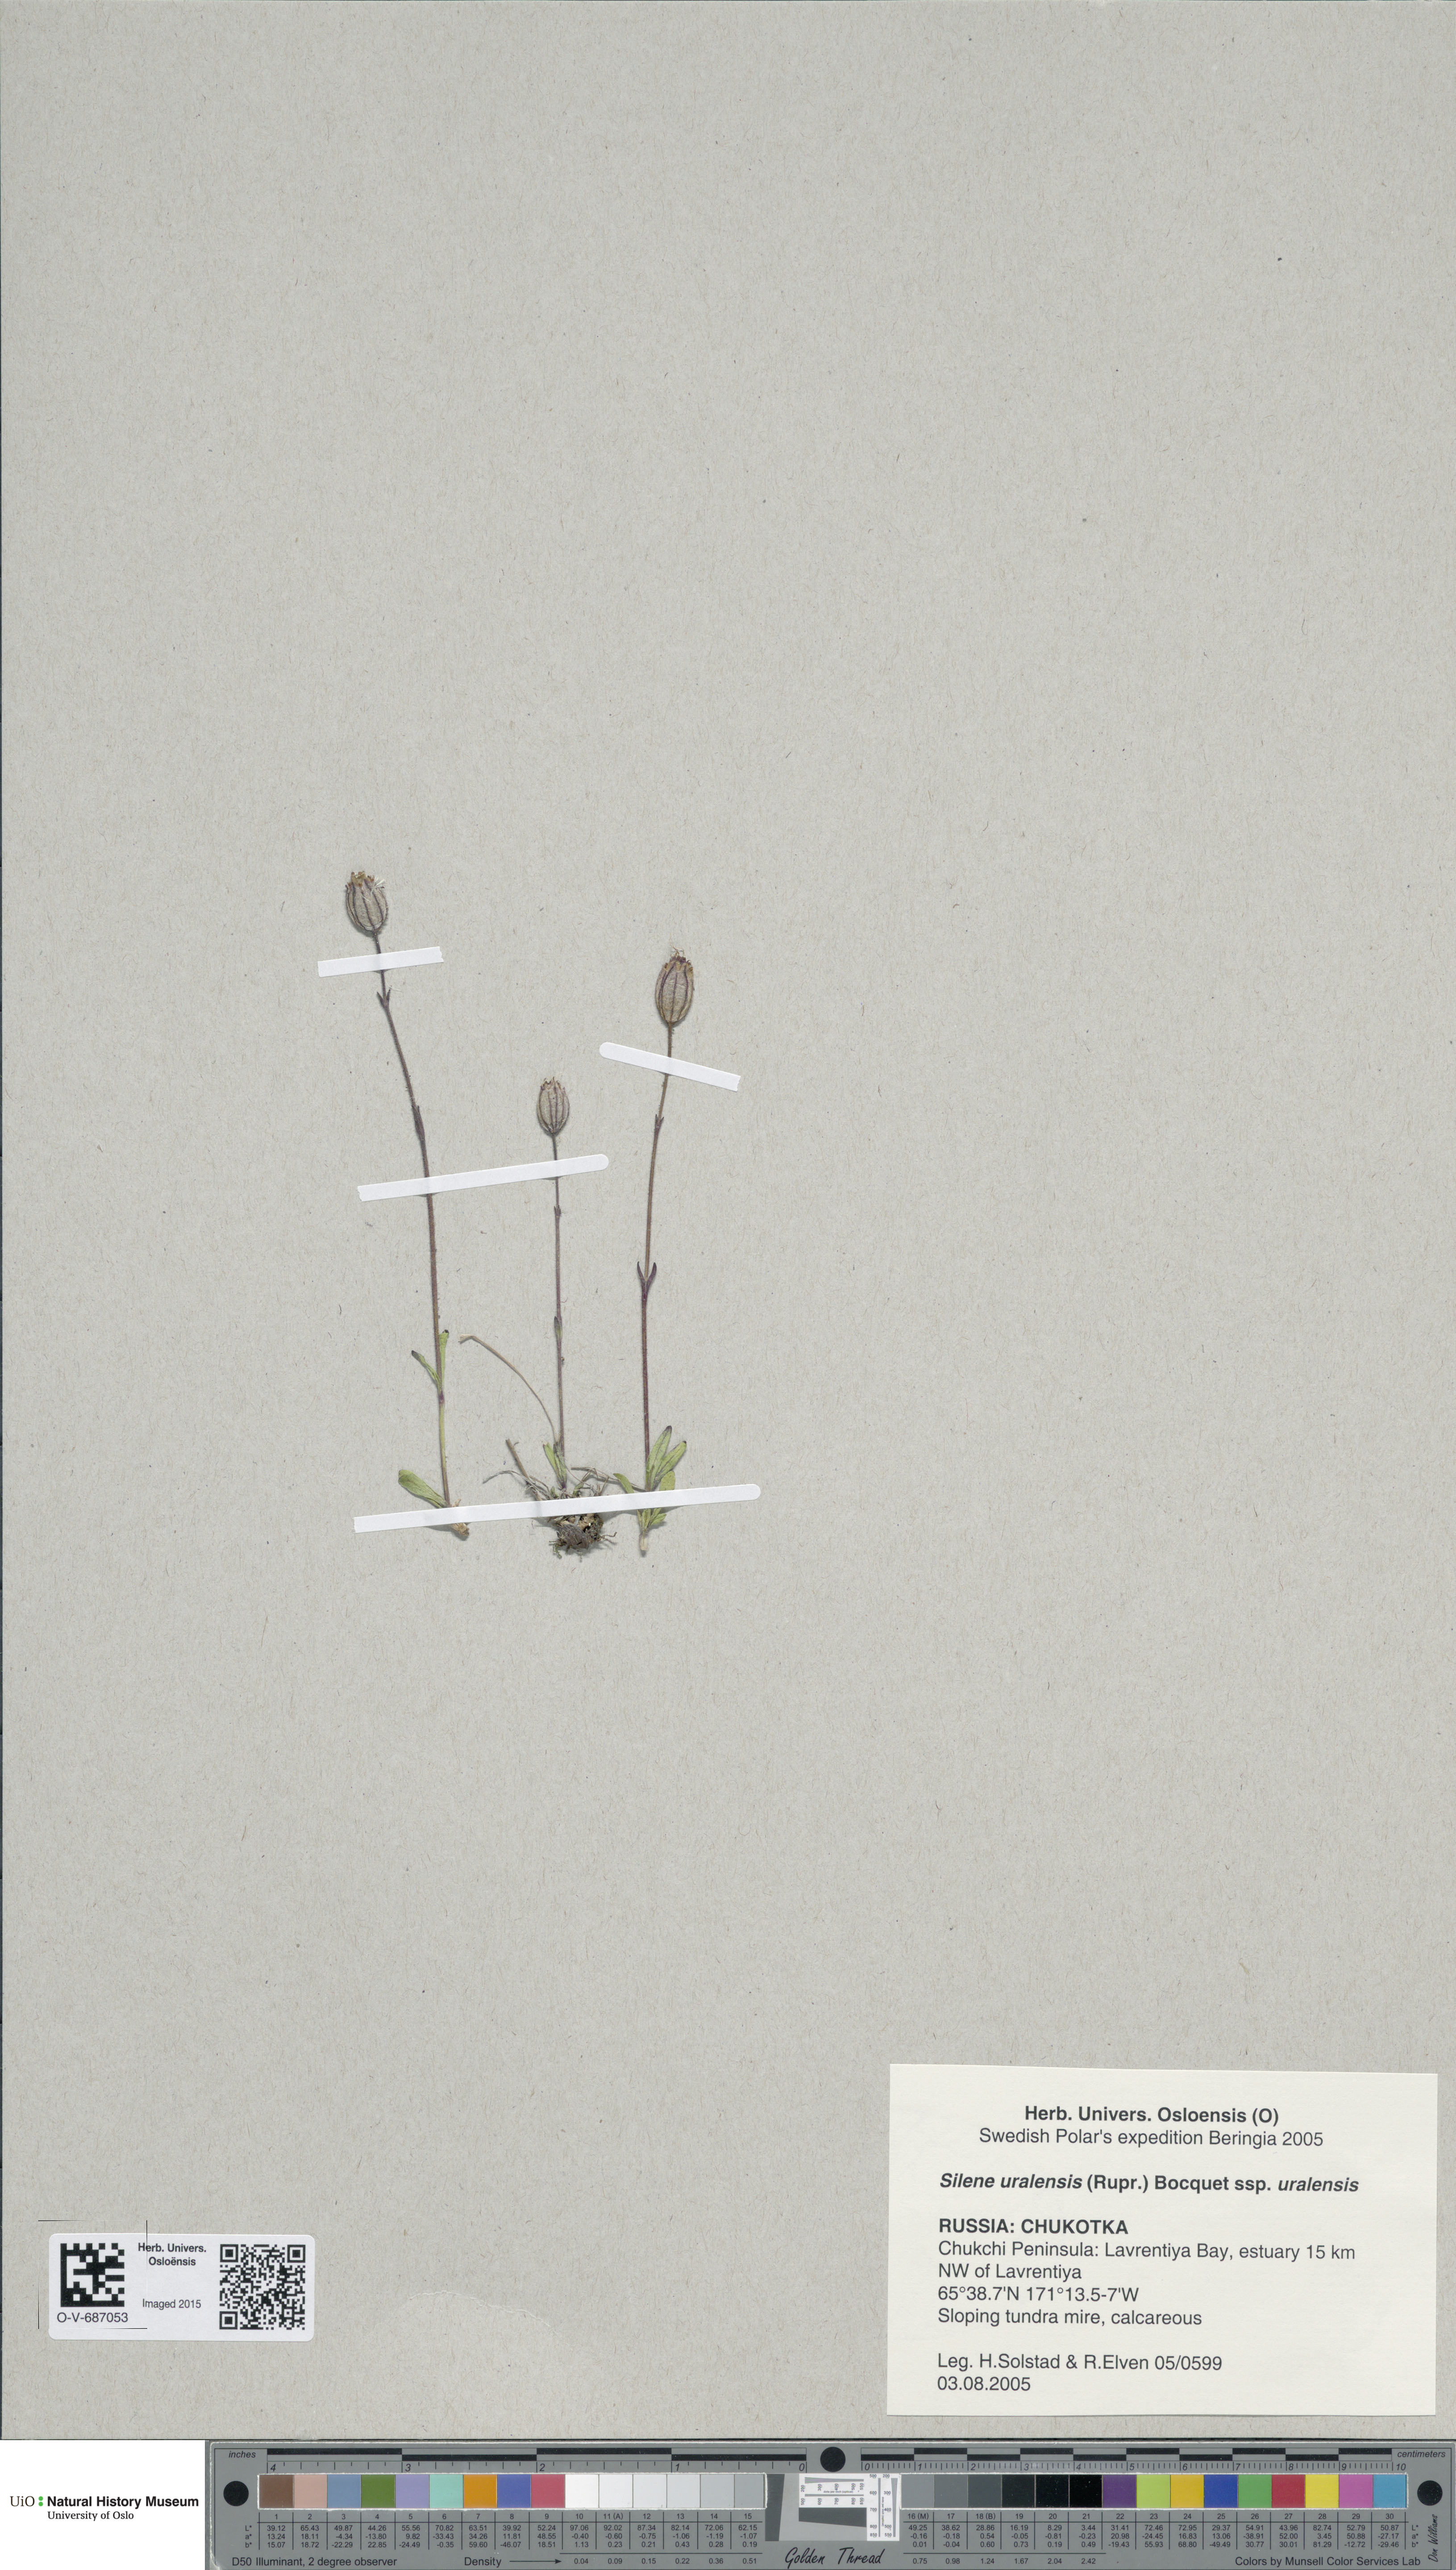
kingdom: Plantae
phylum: Tracheophyta
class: Magnoliopsida
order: Caryophyllales
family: Caryophyllaceae
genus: Silene
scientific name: Silene uralensis
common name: Nodding campion
